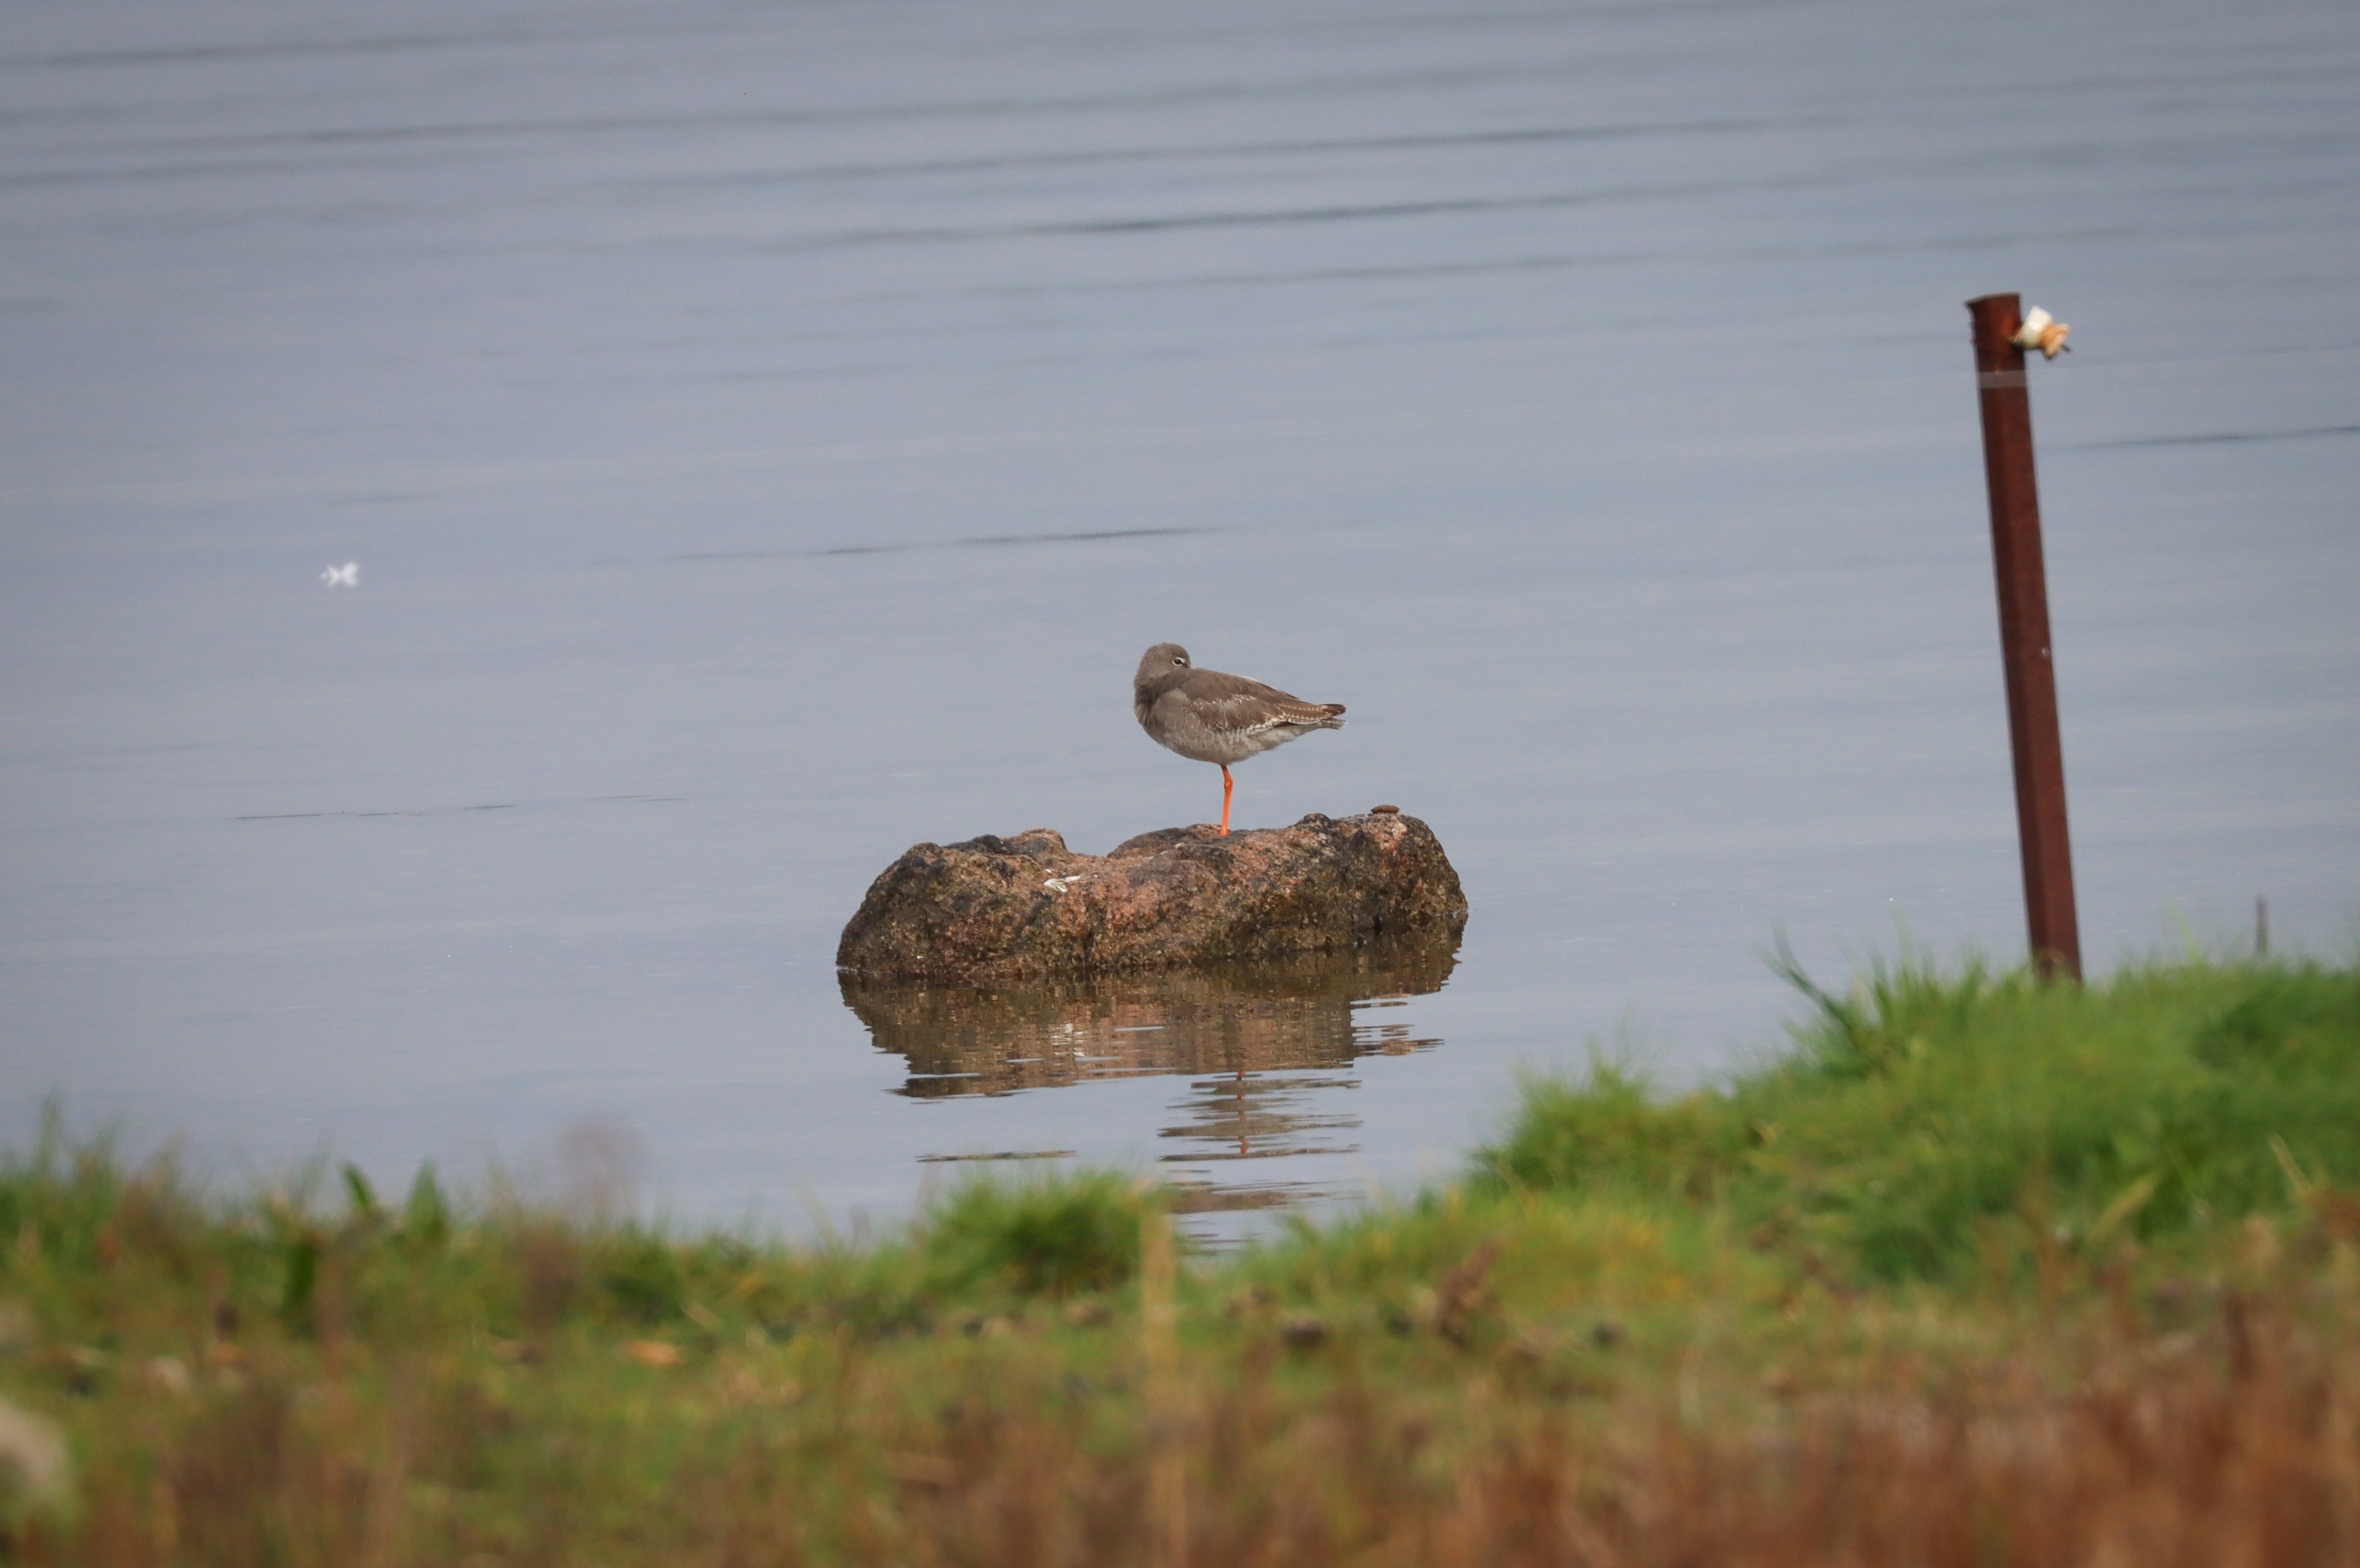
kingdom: Animalia
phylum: Chordata
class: Aves
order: Charadriiformes
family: Scolopacidae
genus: Tringa
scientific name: Tringa totanus
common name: Rødben
